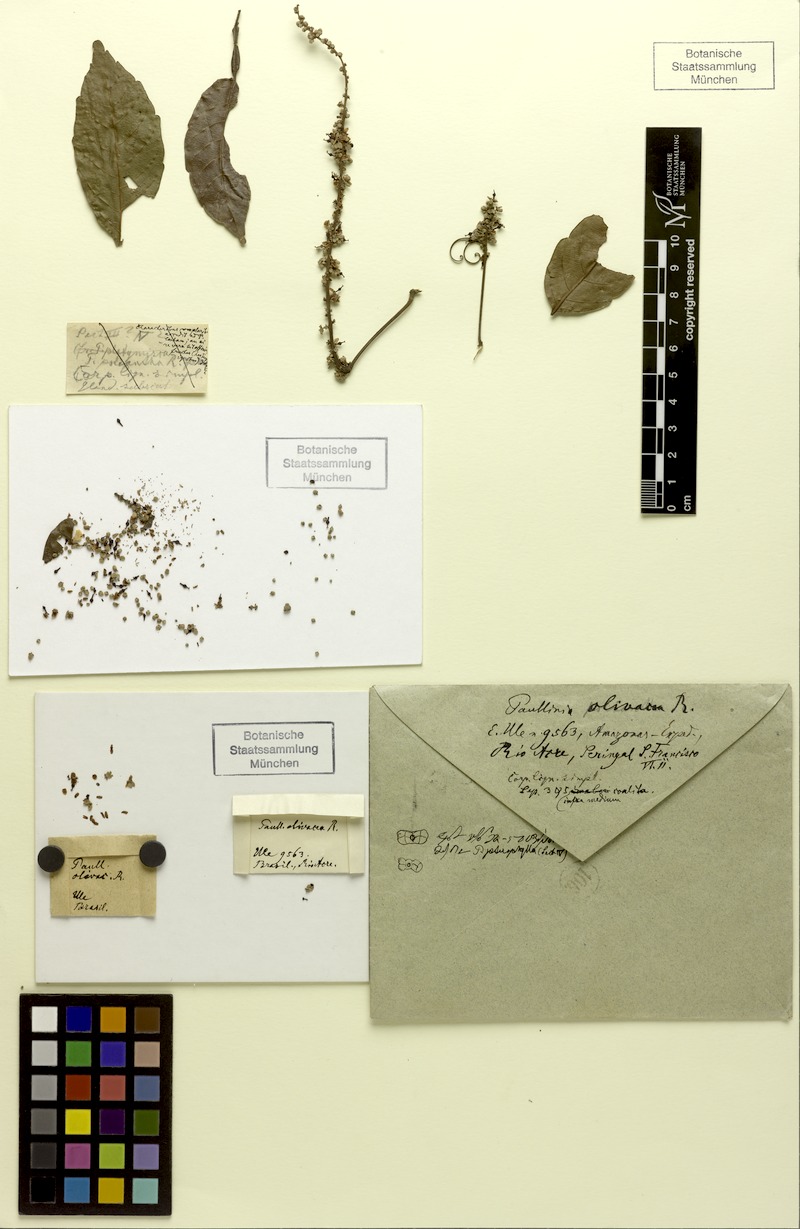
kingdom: Plantae
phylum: Tracheophyta
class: Magnoliopsida
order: Sapindales
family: Sapindaceae
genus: Paullinia
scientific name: Paullinia pterophylla
